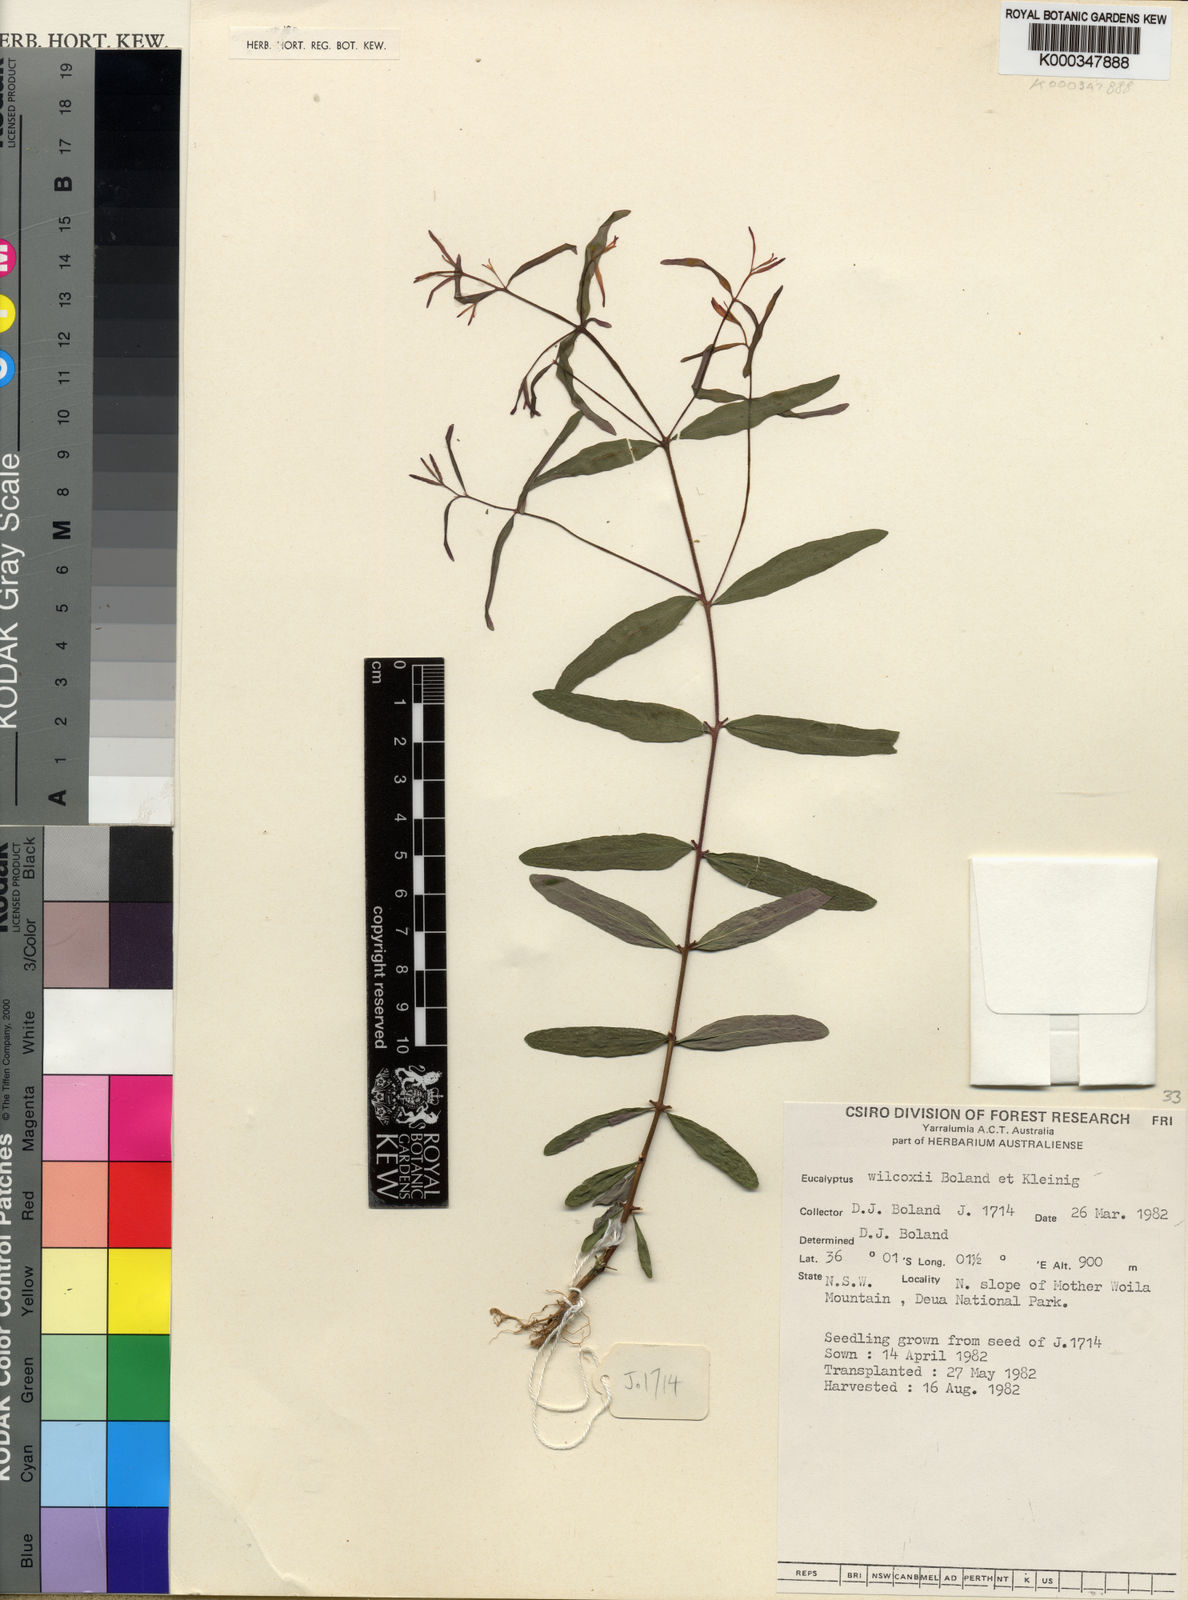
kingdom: Plantae
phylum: Tracheophyta
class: Magnoliopsida
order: Myrtales
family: Myrtaceae
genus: Eucalyptus
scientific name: Eucalyptus wilcoxii
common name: Deua gum
